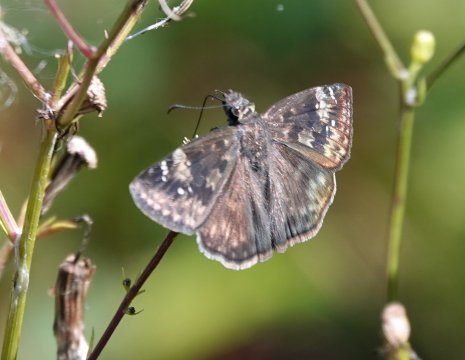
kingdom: Animalia
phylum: Arthropoda
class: Insecta
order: Lepidoptera
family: Hesperiidae
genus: Erynnis
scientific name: Erynnis zarucco
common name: Zarucco Duskywing
